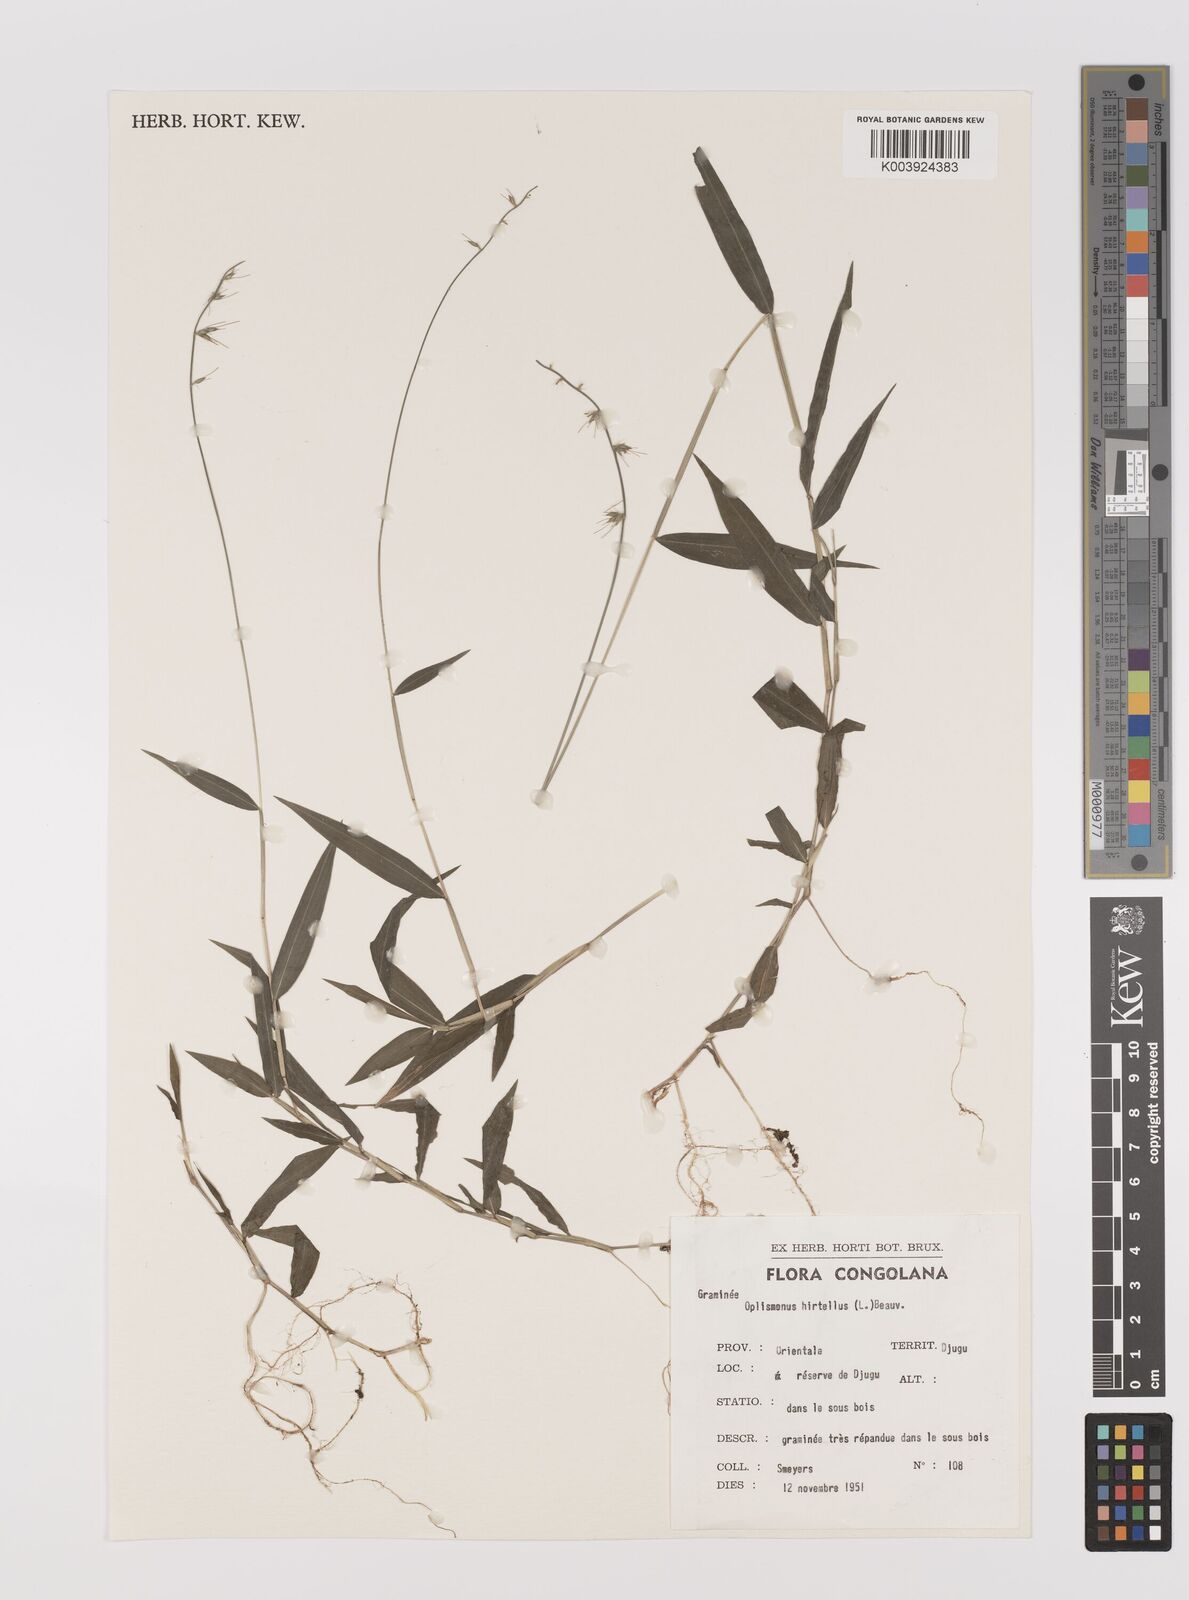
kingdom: Plantae
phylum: Tracheophyta
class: Liliopsida
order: Poales
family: Poaceae
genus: Oplismenus
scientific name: Oplismenus undulatifolius
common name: Wavyleaf basketgrass
